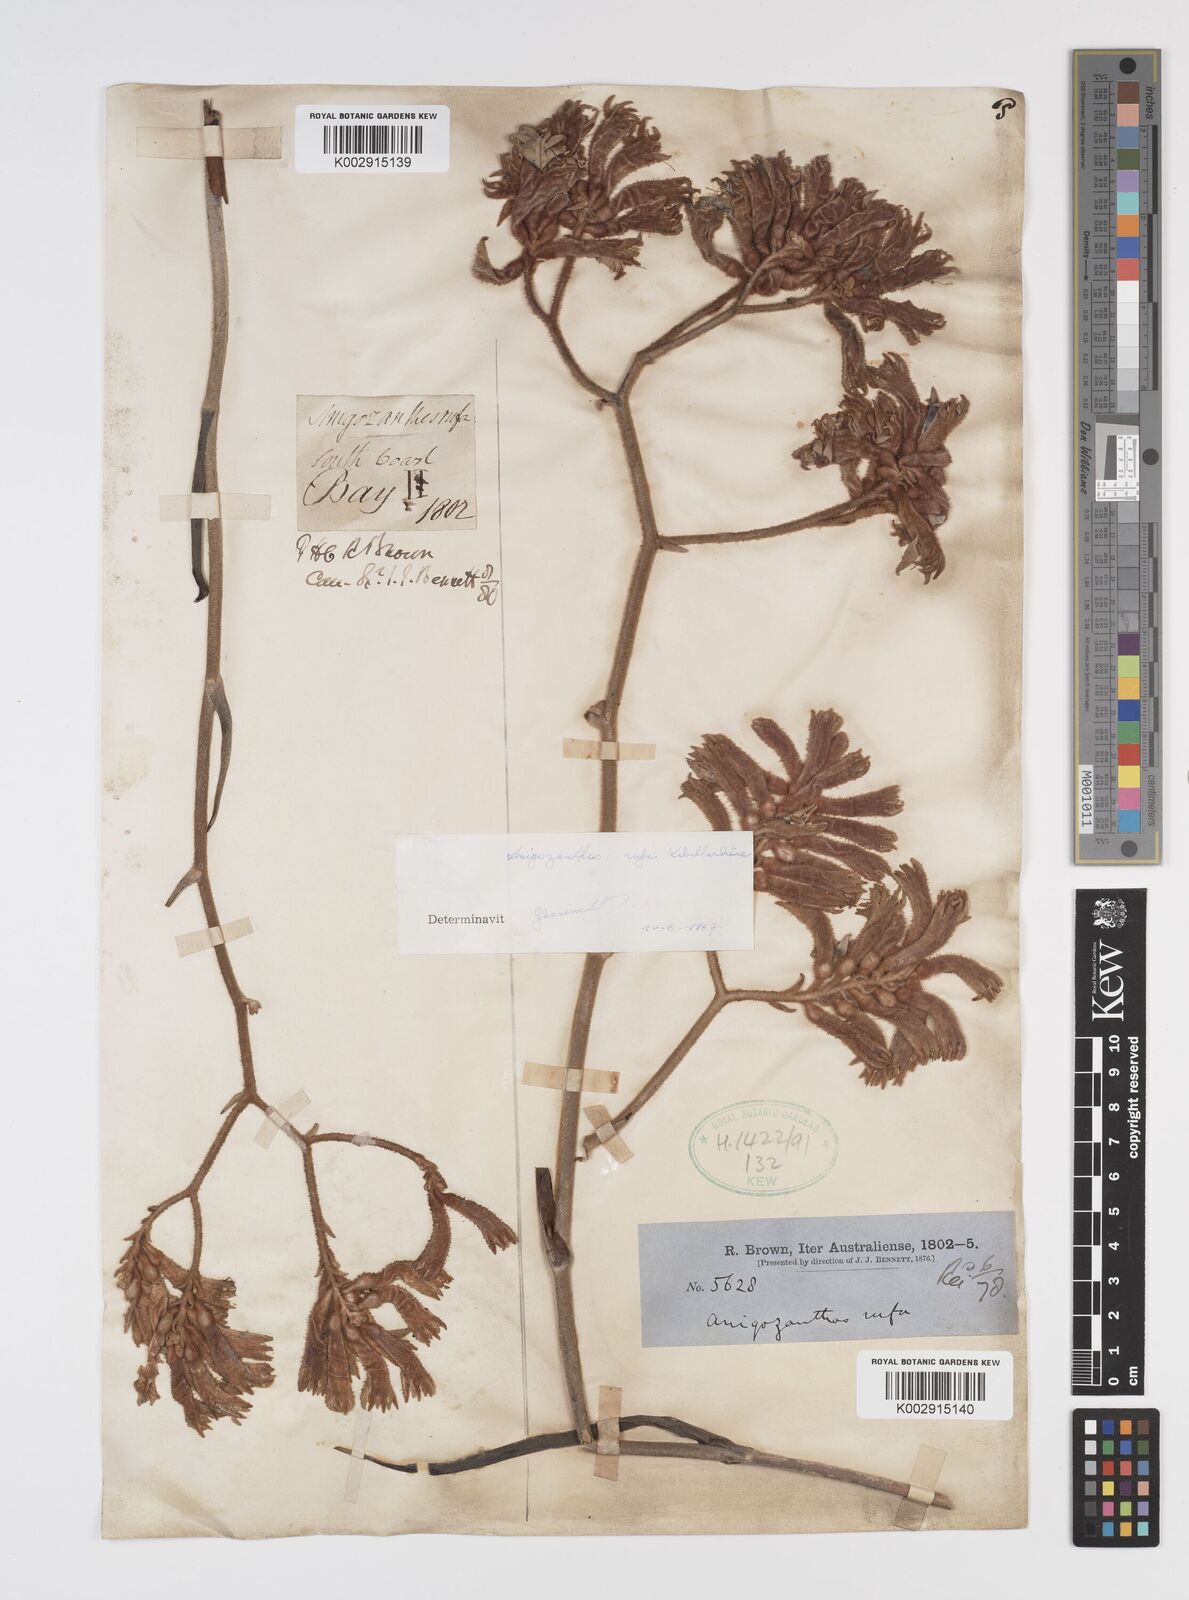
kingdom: Plantae
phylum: Tracheophyta
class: Liliopsida
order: Commelinales
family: Haemodoraceae
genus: Anigozanthos
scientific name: Anigozanthos rufus
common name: Red kangaroo-paw
